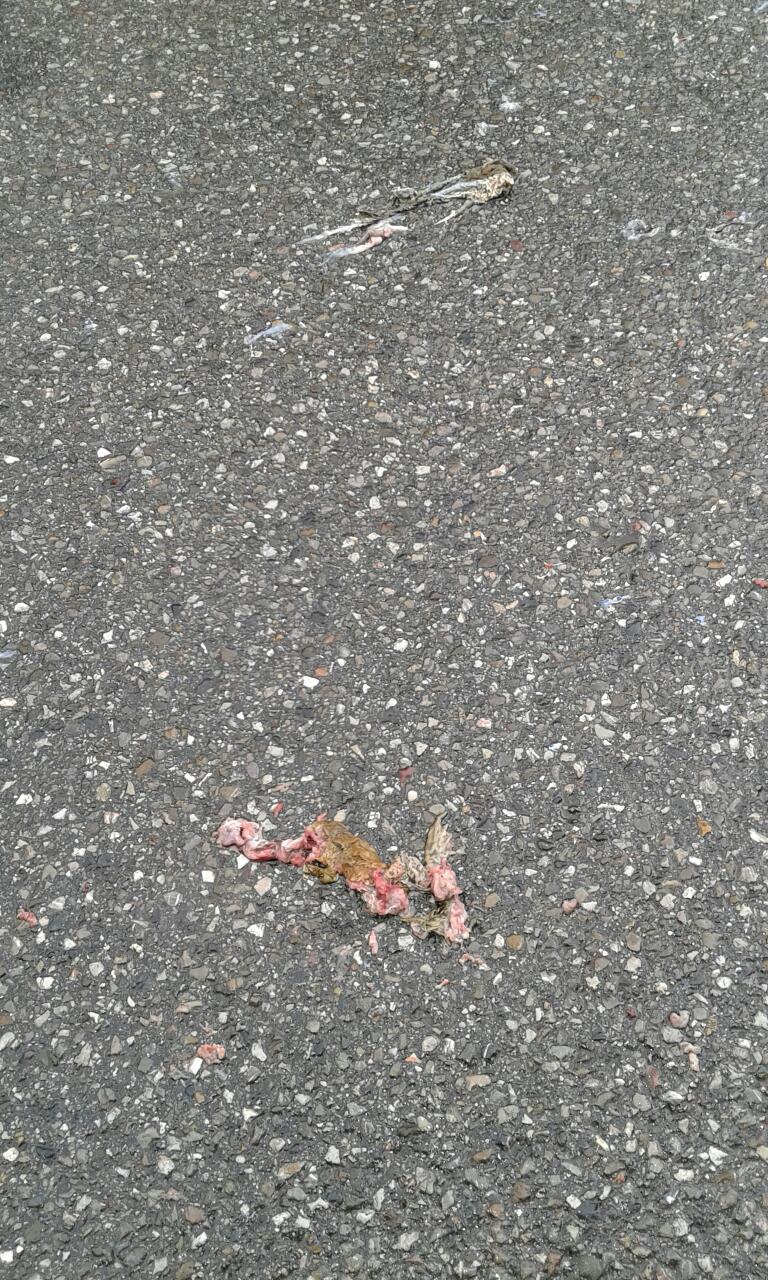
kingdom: Animalia
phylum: Chordata
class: Amphibia
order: Anura
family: Bufonidae
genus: Bufo
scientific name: Bufo bufo
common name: Common toad
